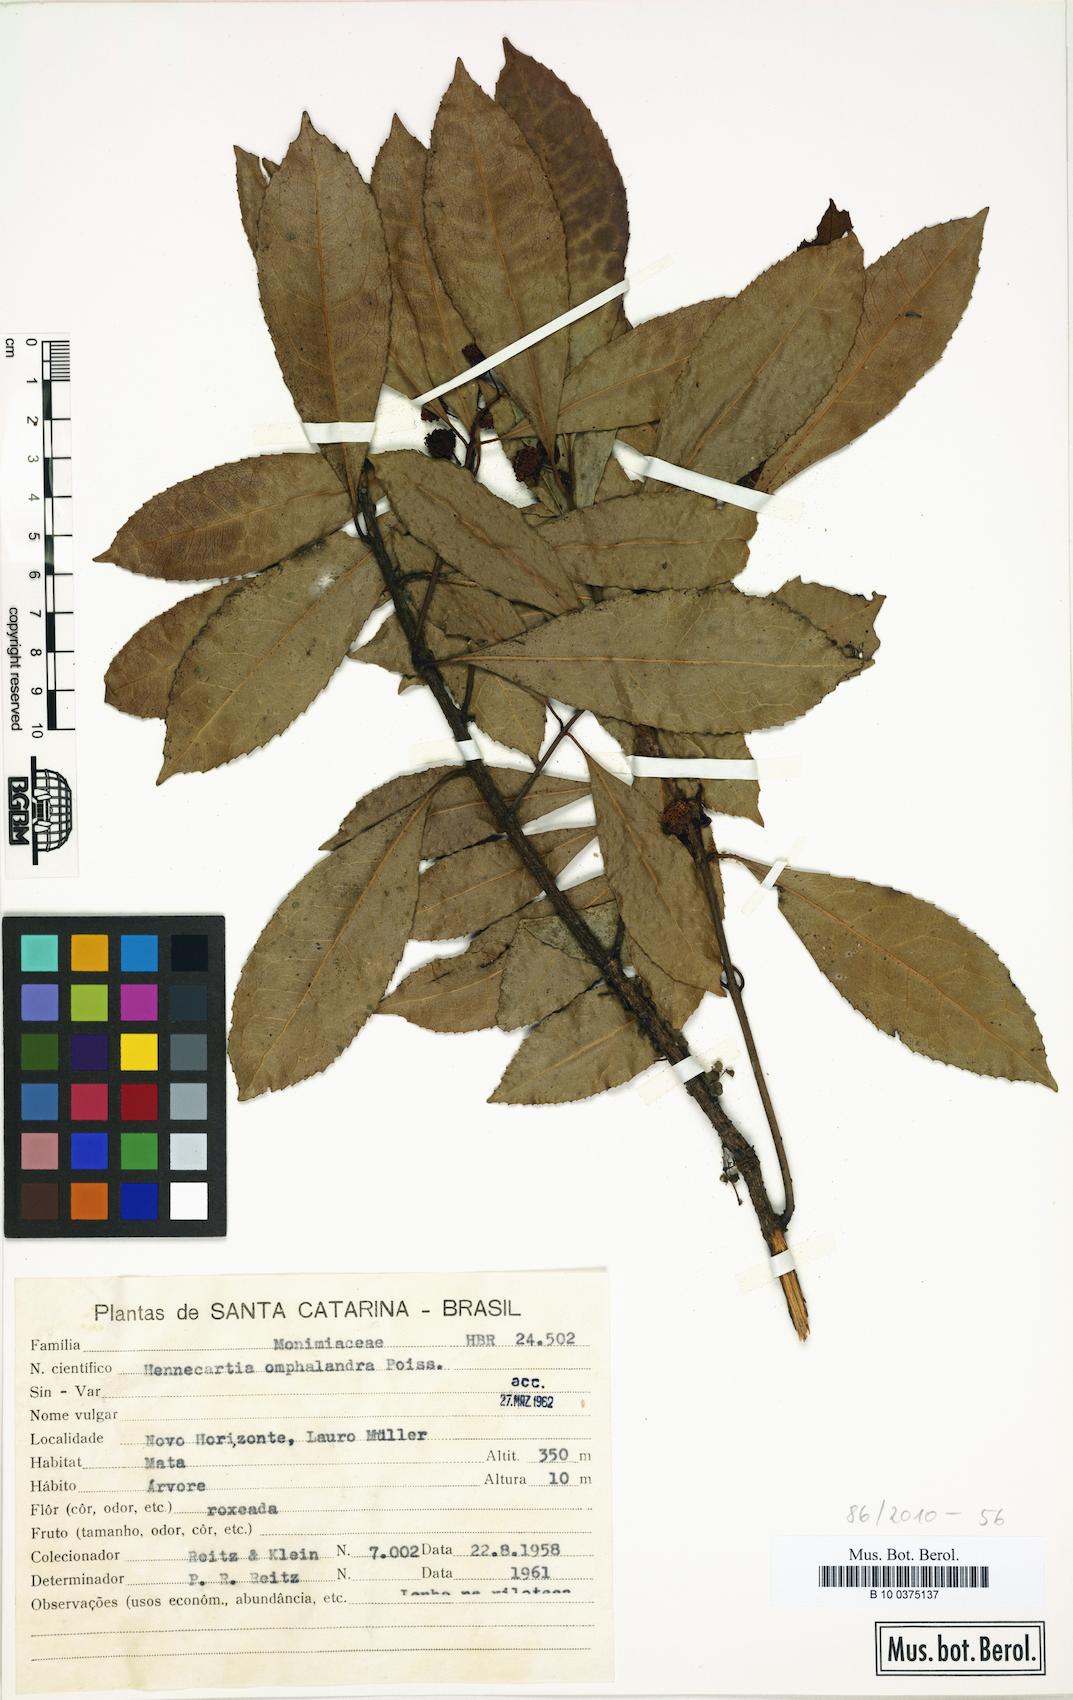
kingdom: Plantae
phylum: Tracheophyta
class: Magnoliopsida
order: Laurales
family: Monimiaceae
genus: Hennecartia
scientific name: Hennecartia omphalandra
